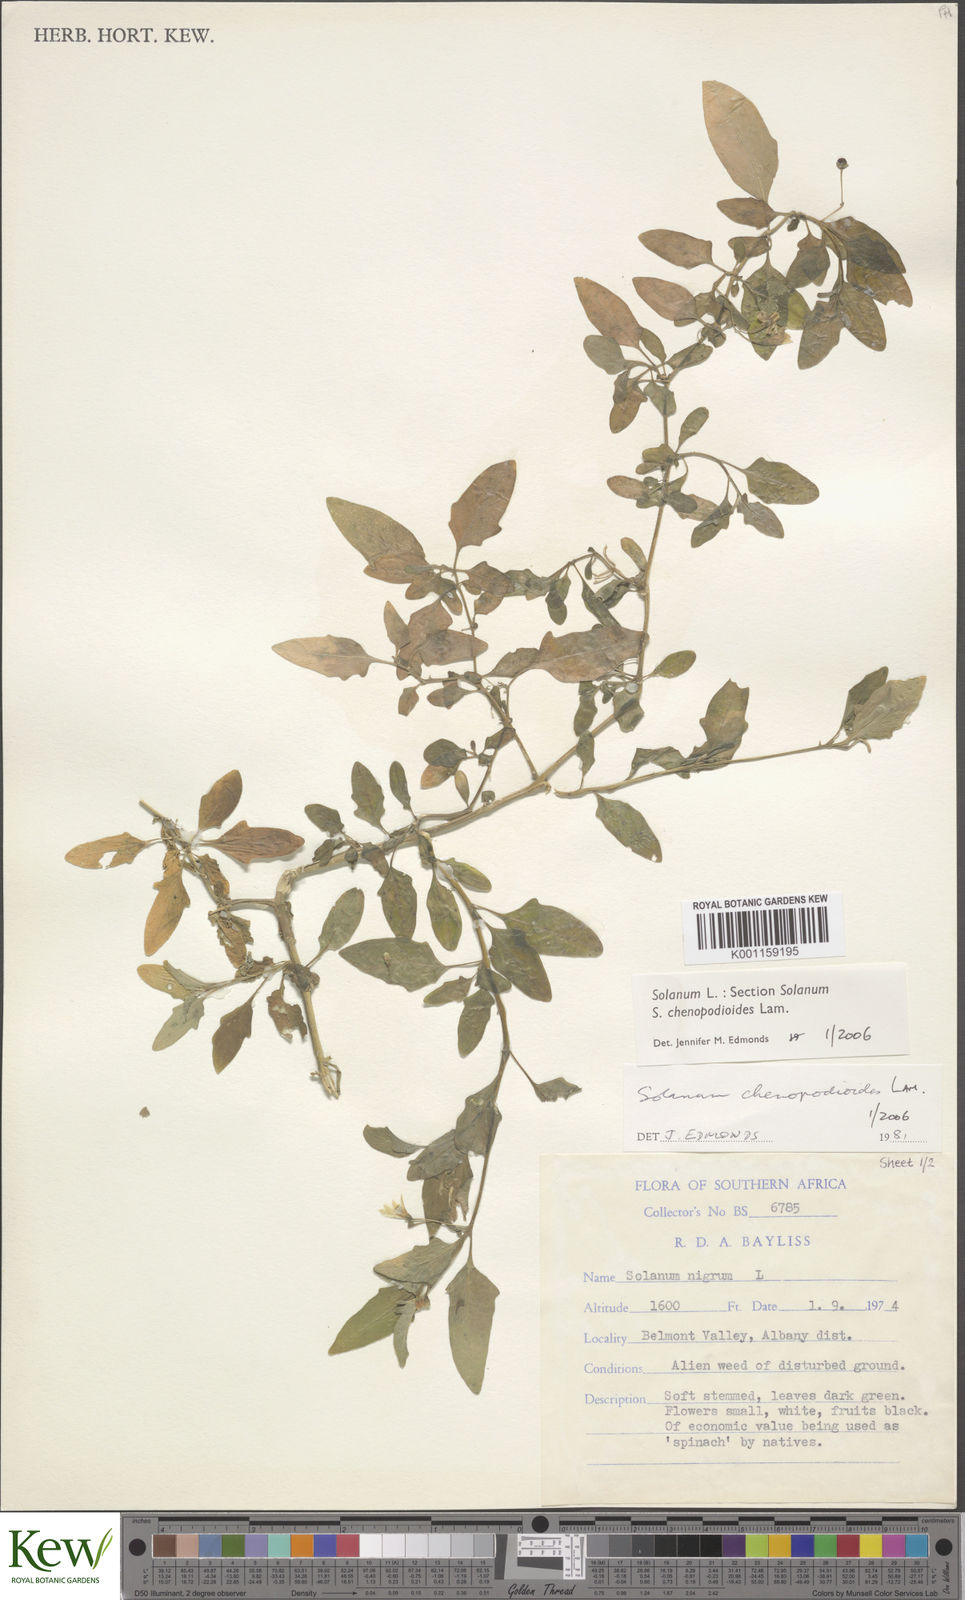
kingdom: Plantae
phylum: Tracheophyta
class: Magnoliopsida
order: Solanales
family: Solanaceae
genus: Solanum
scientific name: Solanum chenopodioides
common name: Tall nightshade
